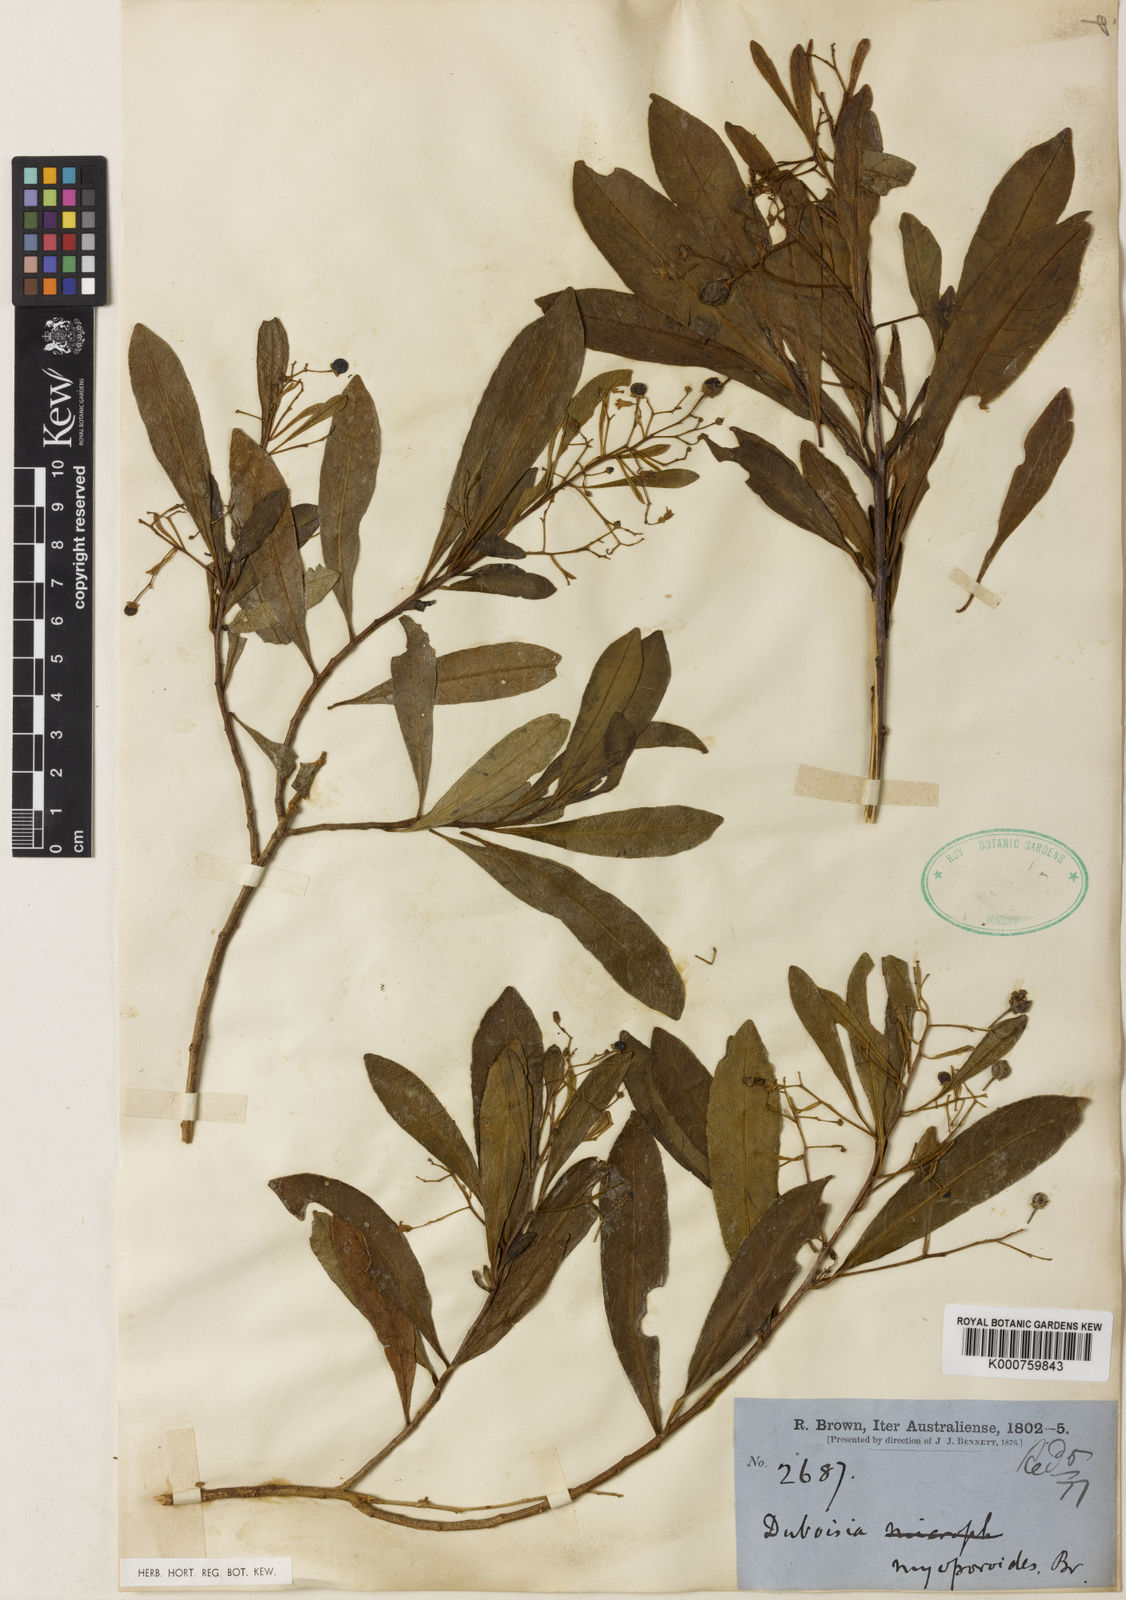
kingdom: Plantae
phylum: Tracheophyta
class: Magnoliopsida
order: Solanales
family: Solanaceae
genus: Duboisia
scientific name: Duboisia myoporoides
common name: Corkwoodtree
